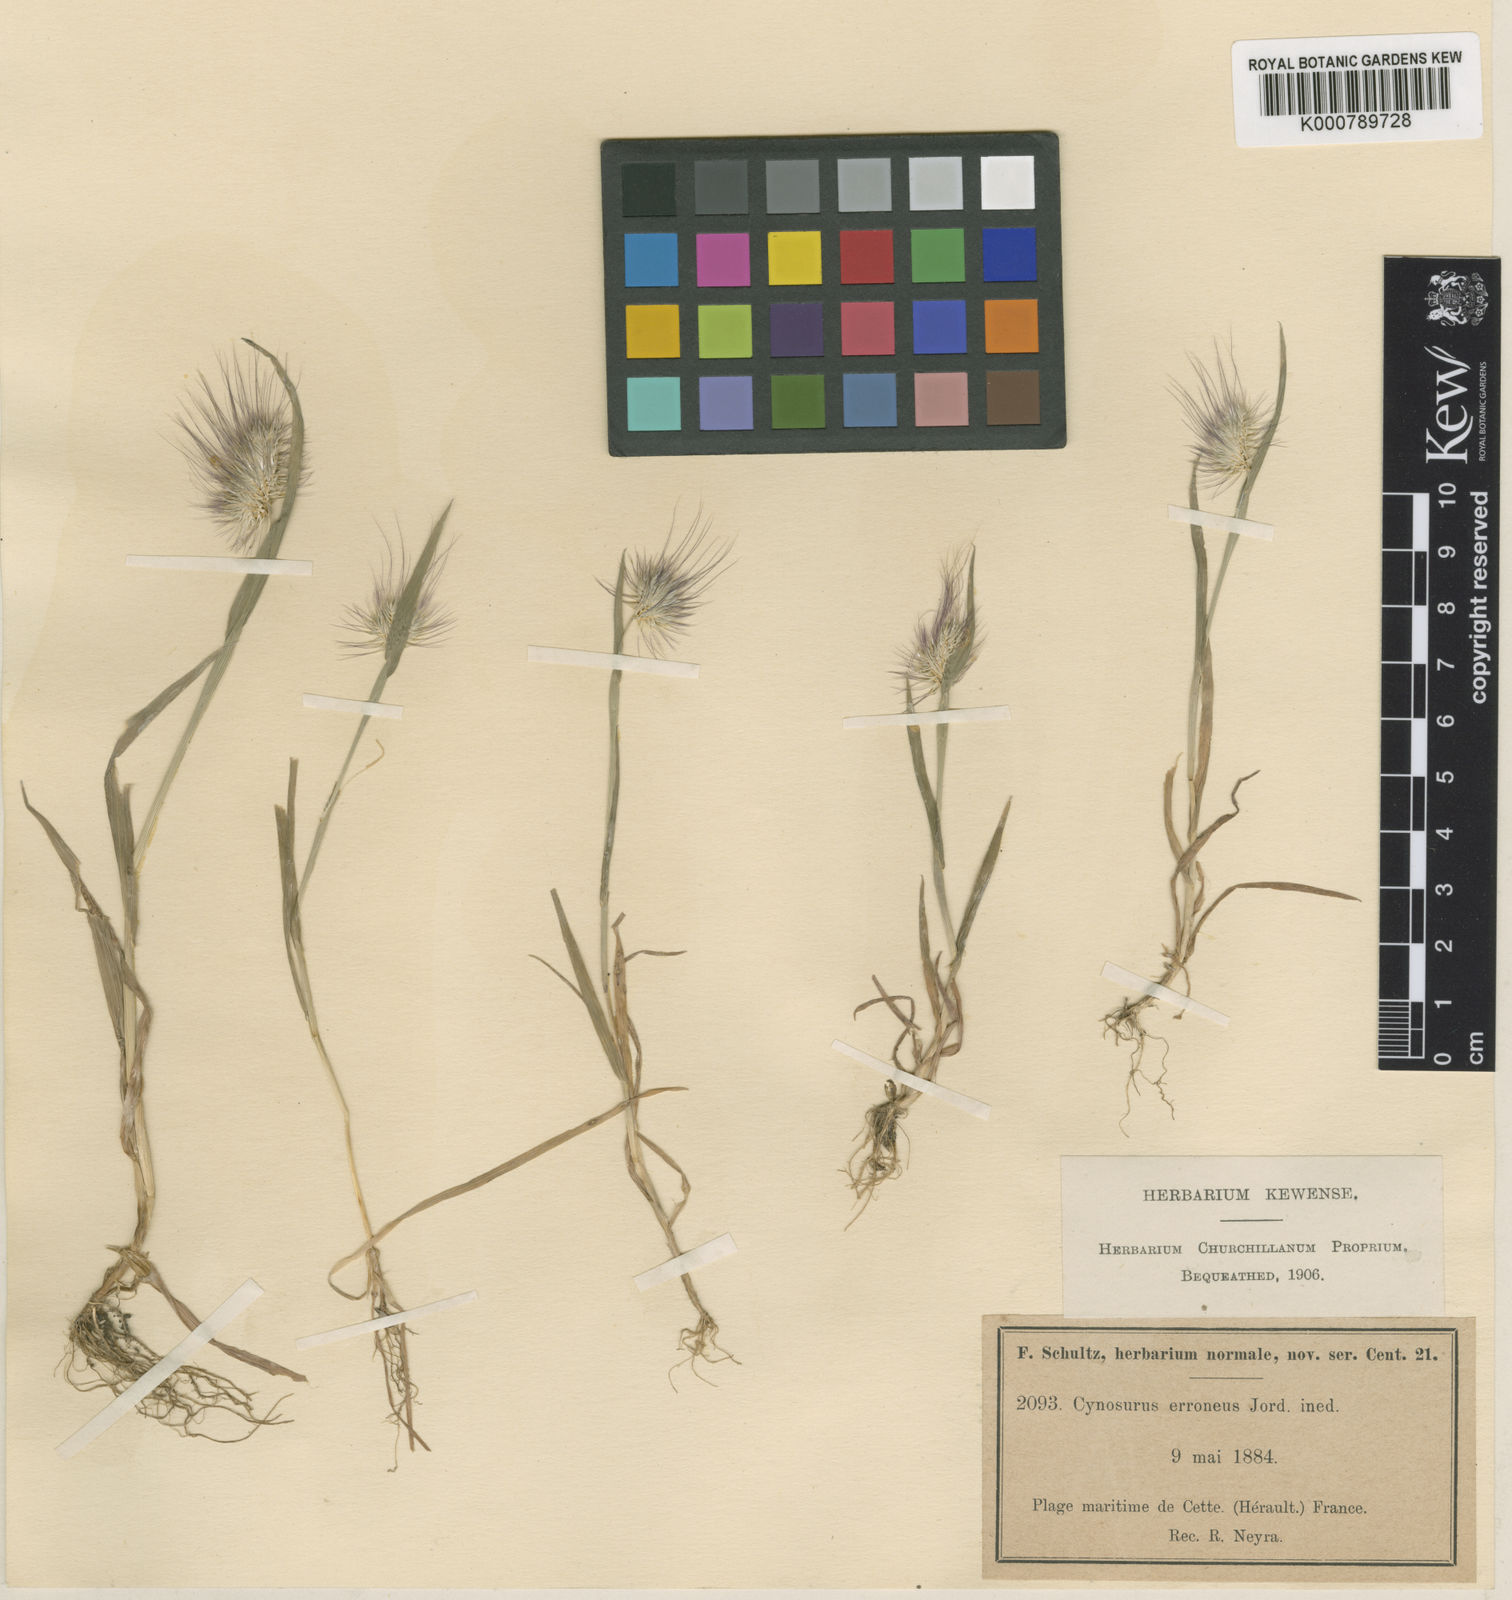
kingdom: Plantae
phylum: Tracheophyta
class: Liliopsida
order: Poales
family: Poaceae
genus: Cynosurus
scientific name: Cynosurus echinatus
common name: Rough dog's-tail
